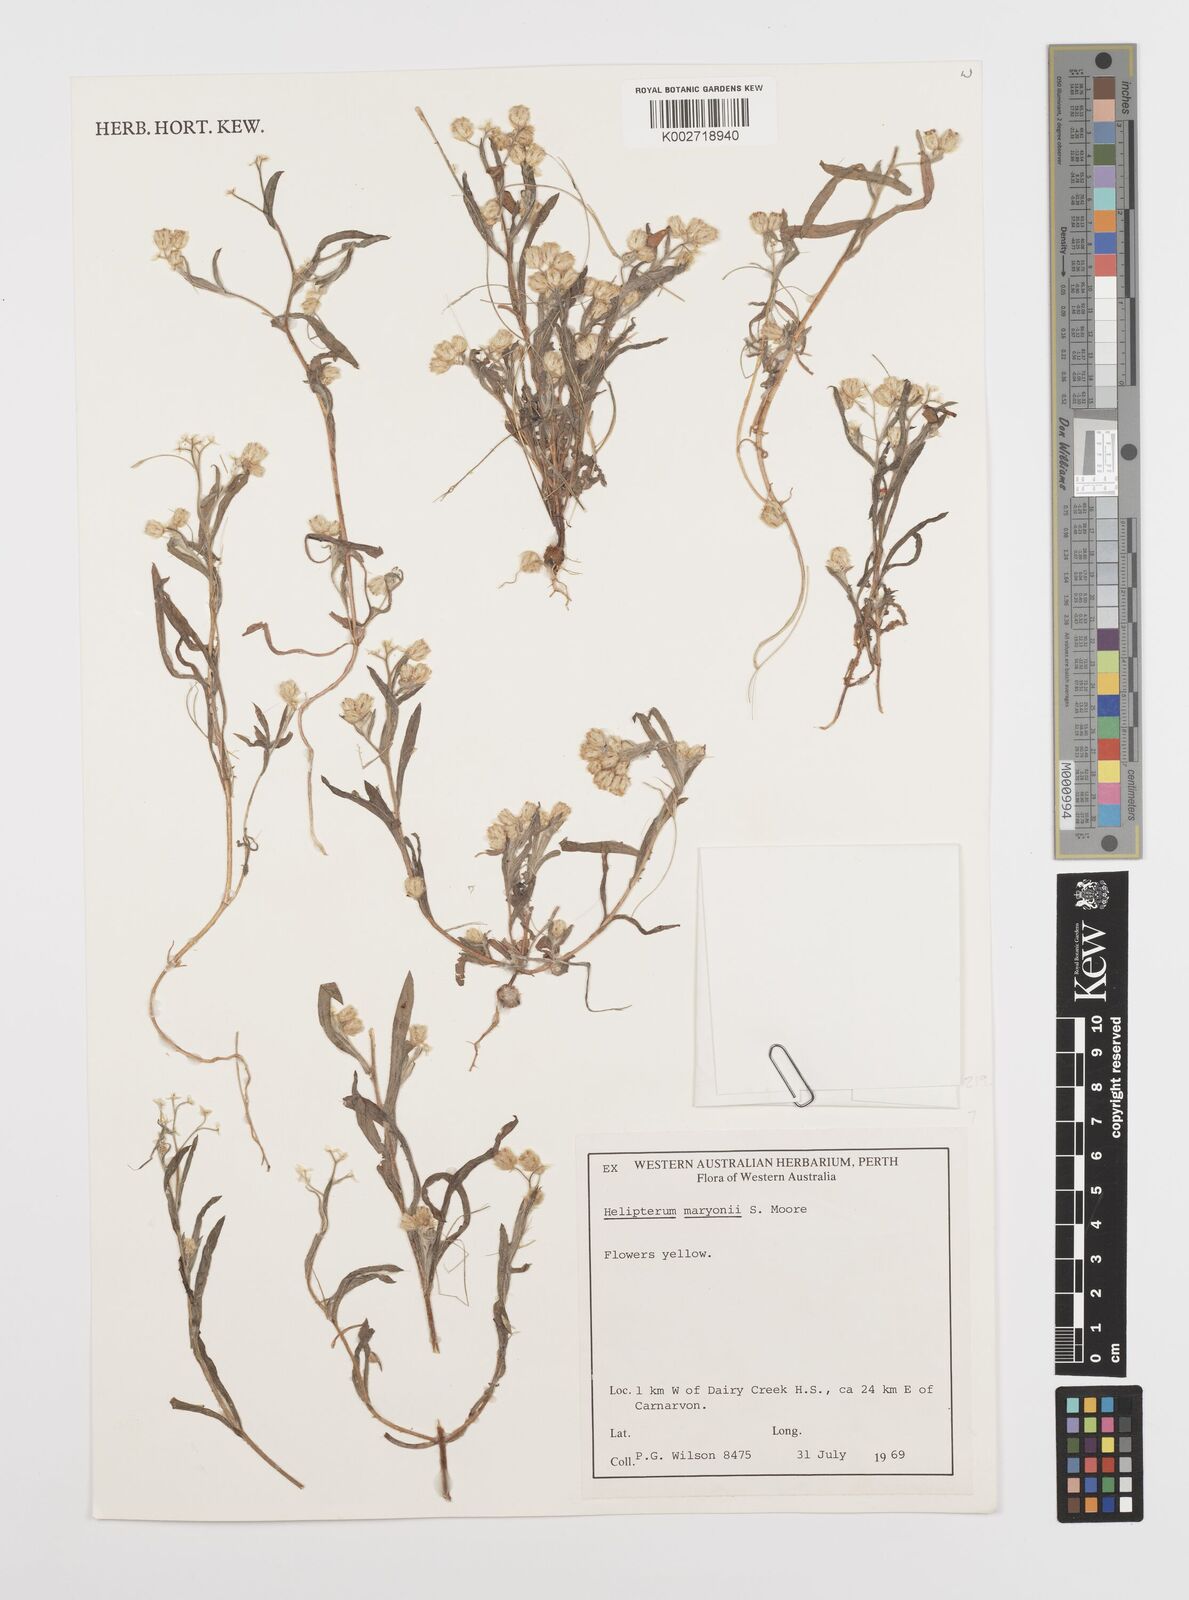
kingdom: Plantae
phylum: Tracheophyta
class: Magnoliopsida
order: Asterales
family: Asteraceae
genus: Rhodanthe
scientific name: Rhodanthe maryonii
